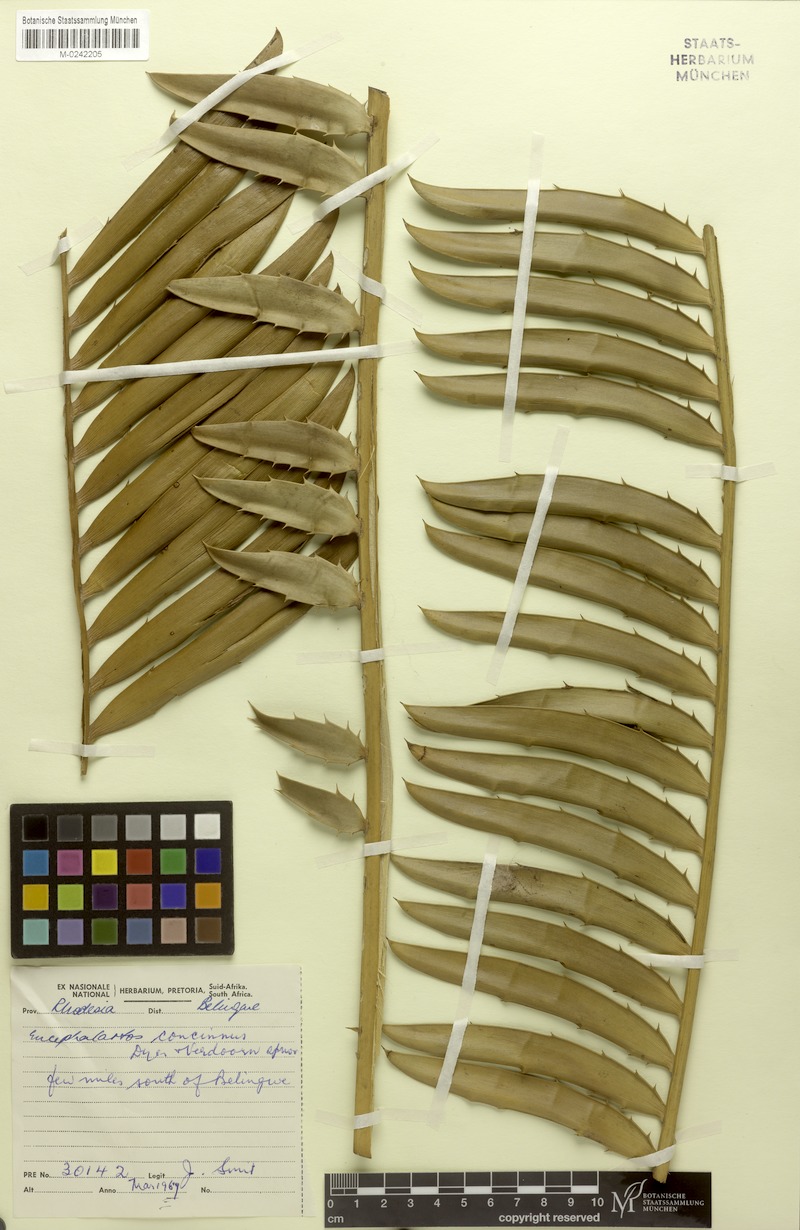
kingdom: Plantae
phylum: Tracheophyta
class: Cycadopsida
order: Cycadales
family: Zamiaceae
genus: Encephalartos
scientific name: Encephalartos concinnus
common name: Runde cycad
